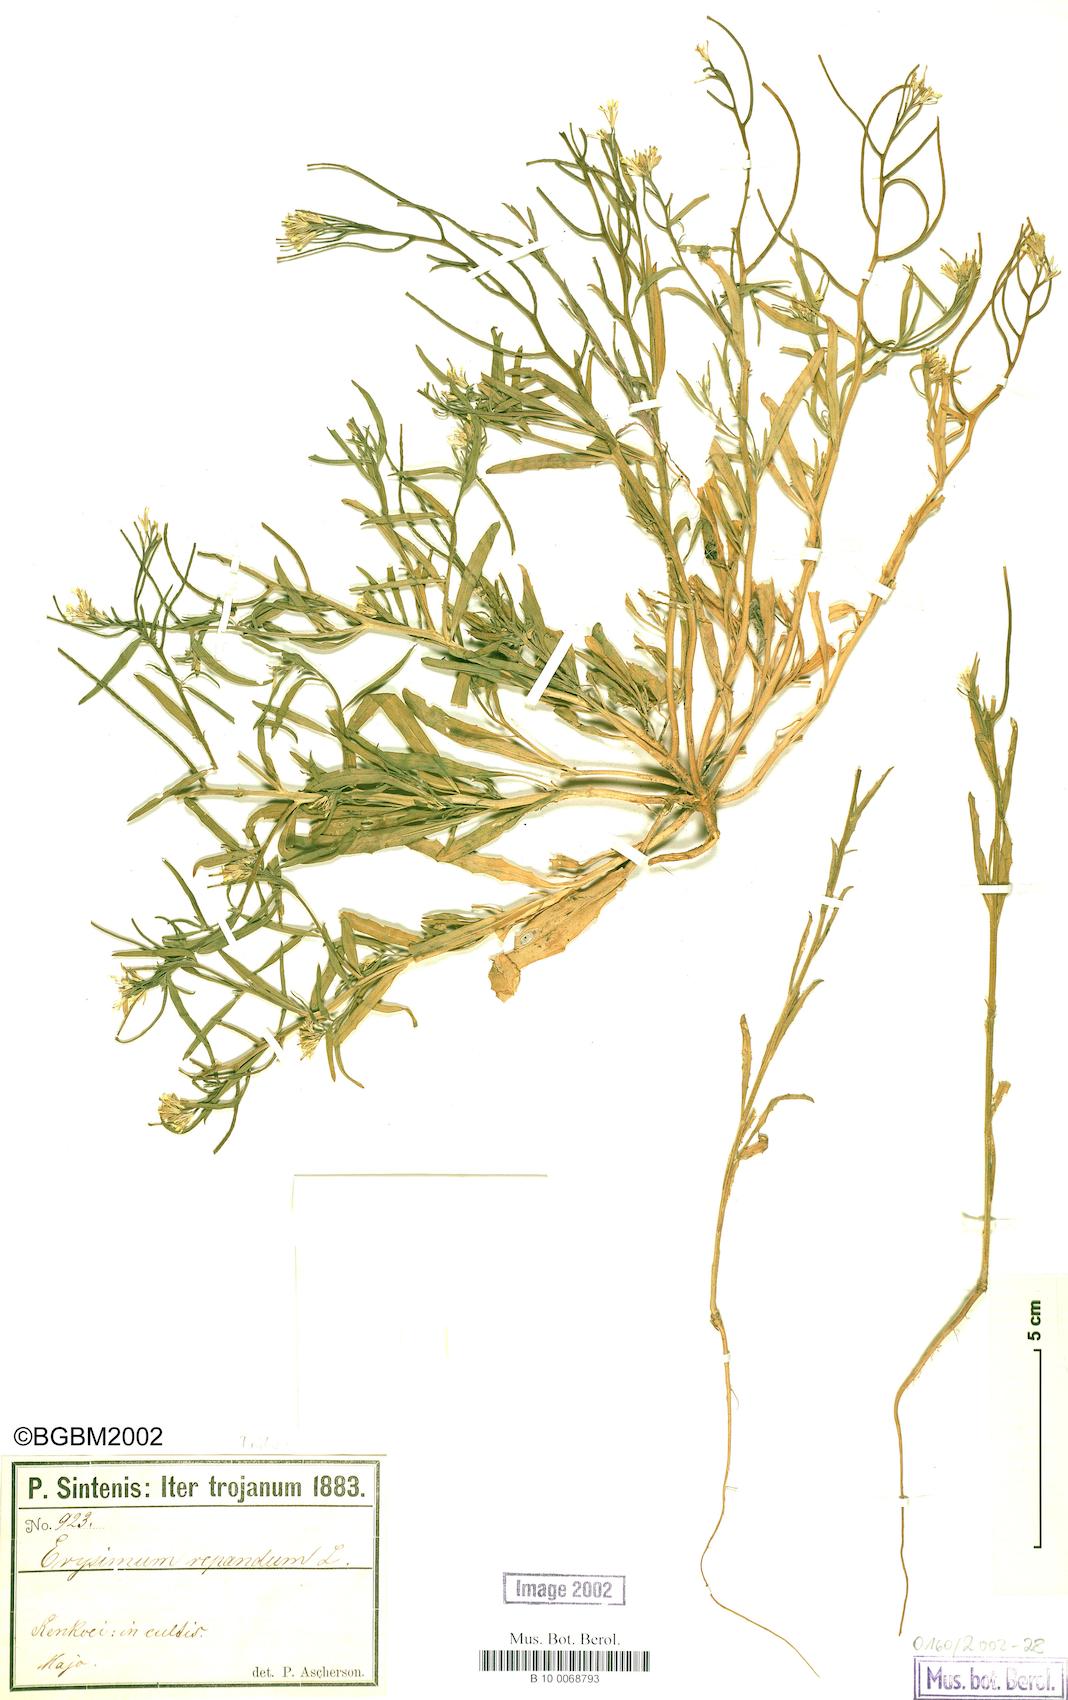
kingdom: Plantae
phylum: Tracheophyta
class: Magnoliopsida
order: Brassicales
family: Brassicaceae
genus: Erysimum
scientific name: Erysimum repandum
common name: Spreading wallflower
